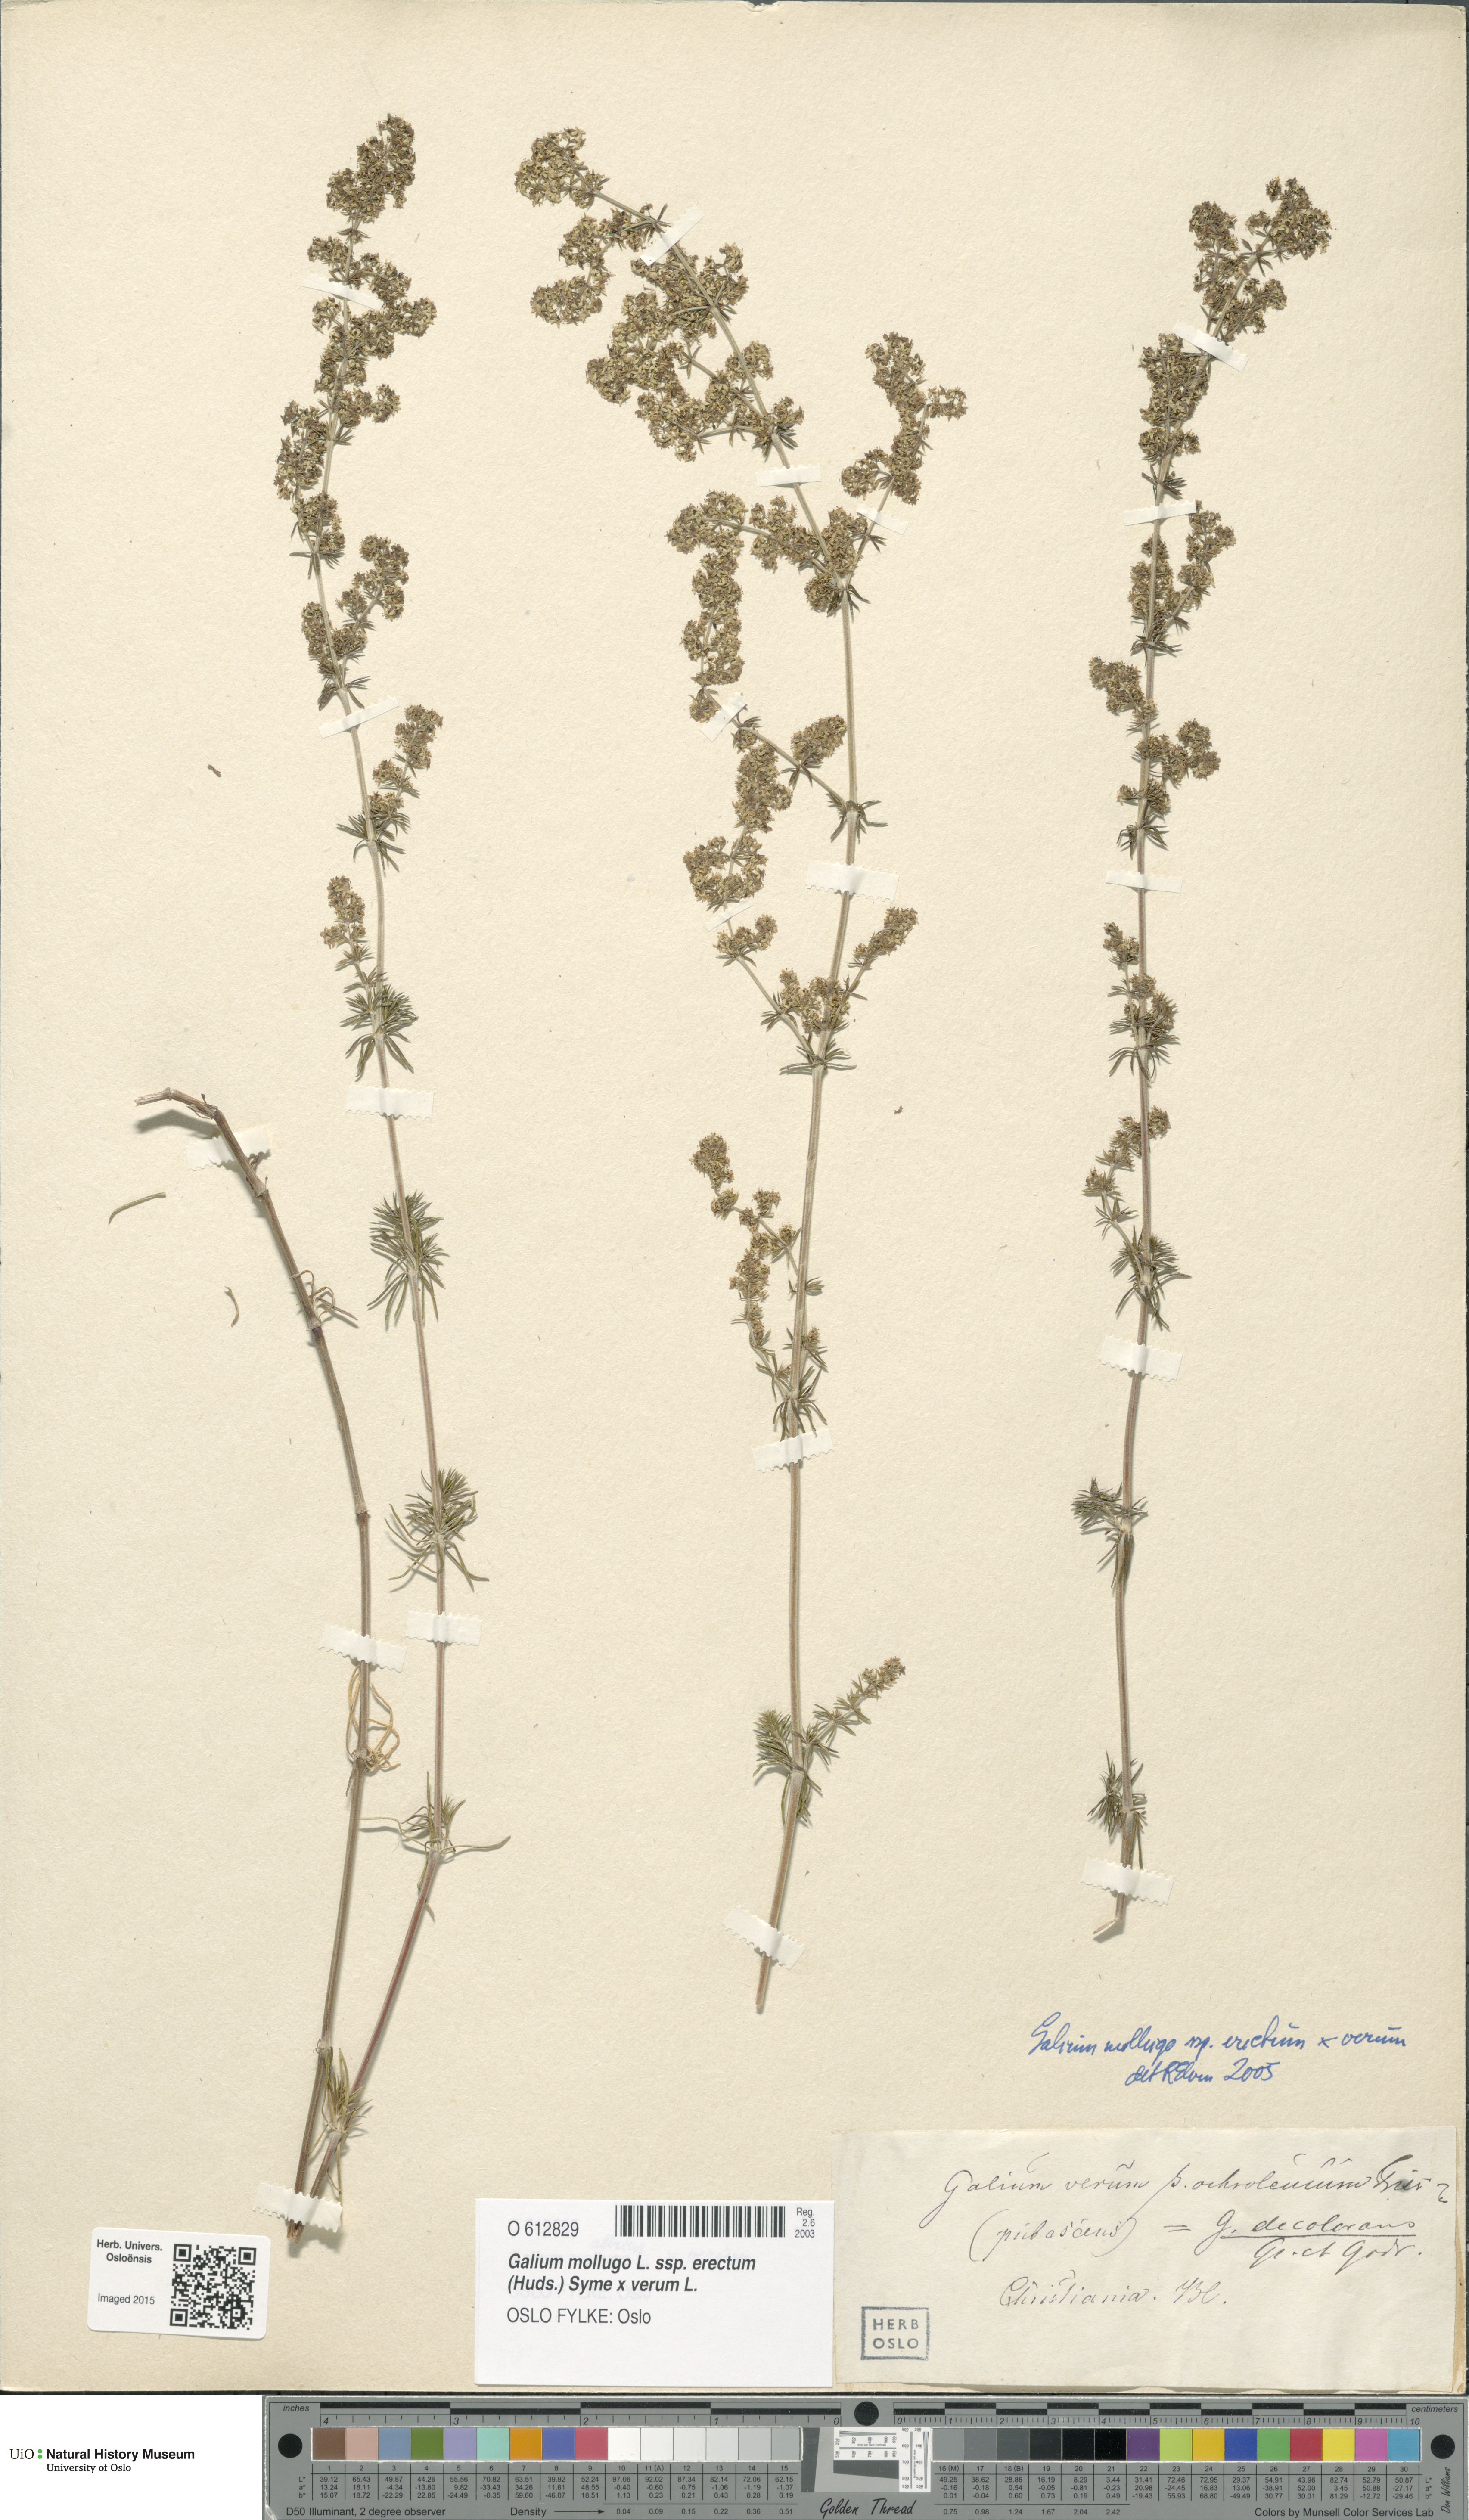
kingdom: Plantae
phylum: Tracheophyta
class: Magnoliopsida
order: Gentianales
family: Rubiaceae
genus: Galium
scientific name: Galium
